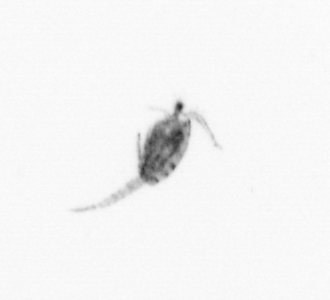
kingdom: Animalia
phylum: Arthropoda
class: Copepoda
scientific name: Copepoda
